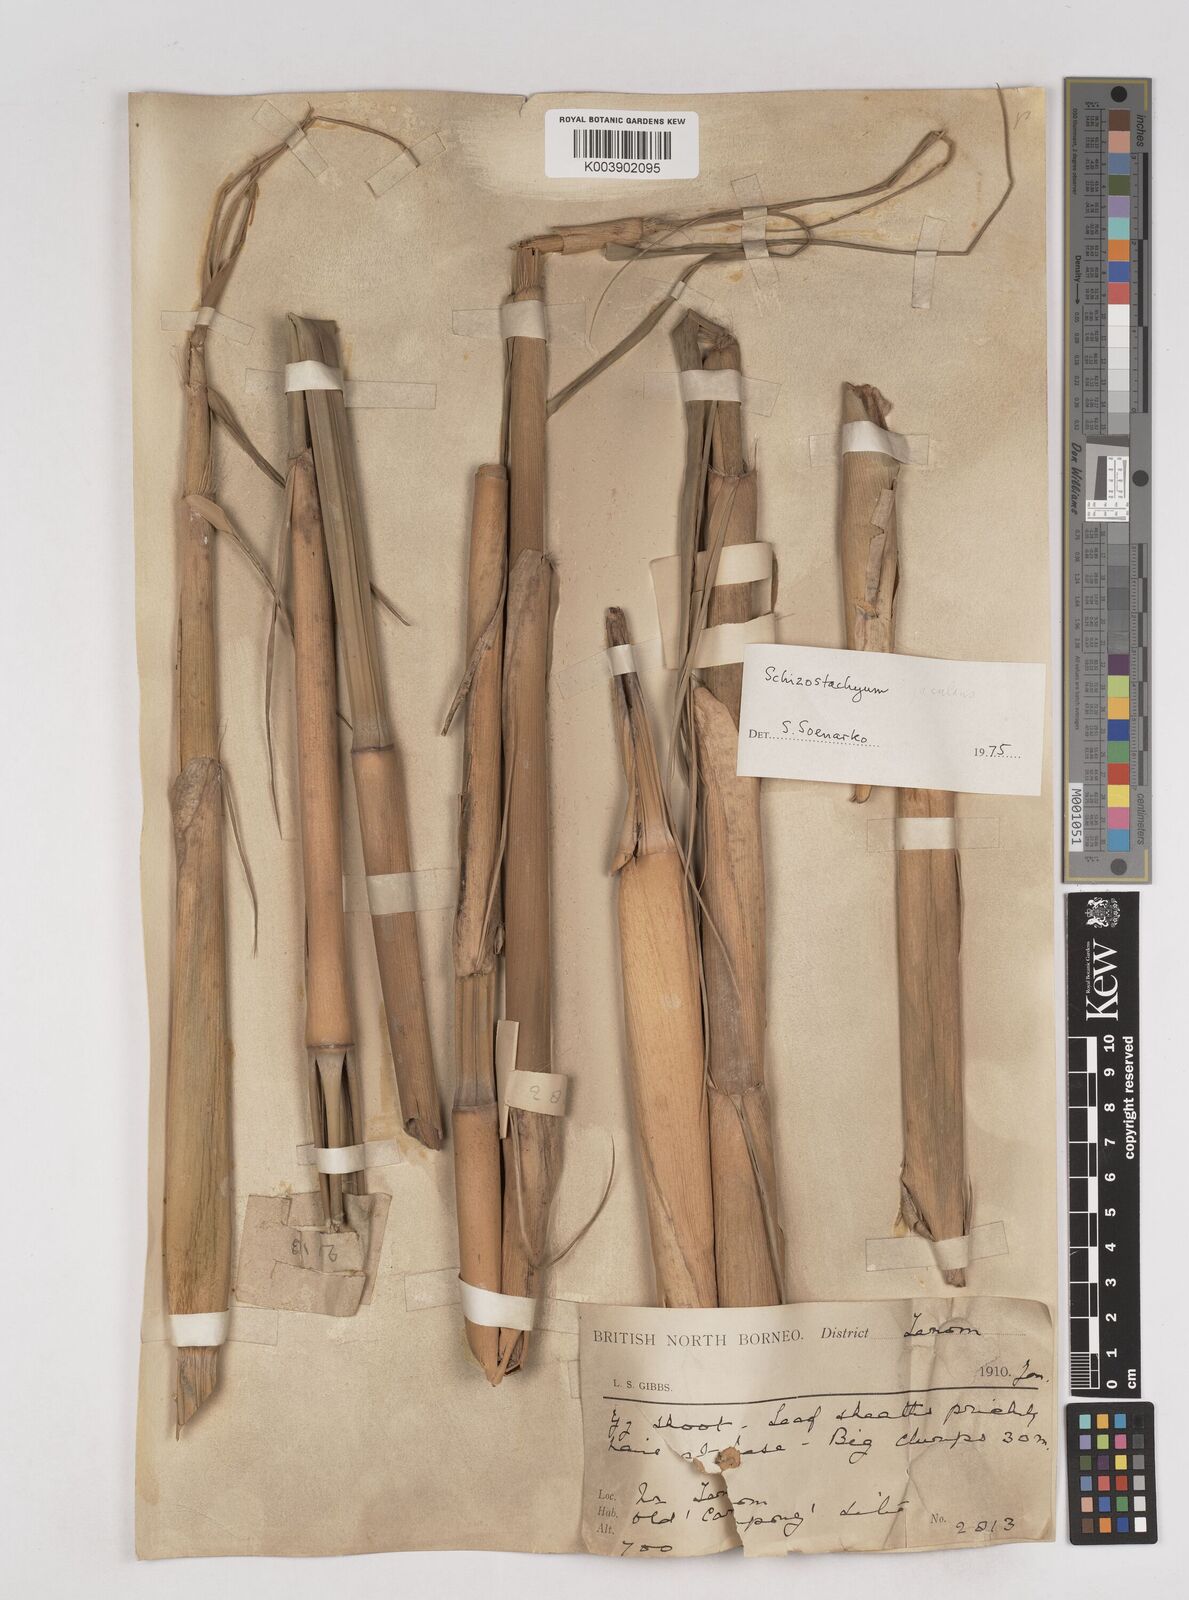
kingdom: Plantae
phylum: Tracheophyta
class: Liliopsida
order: Poales
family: Poaceae
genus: Schizostachyum
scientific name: Schizostachyum jaculans
